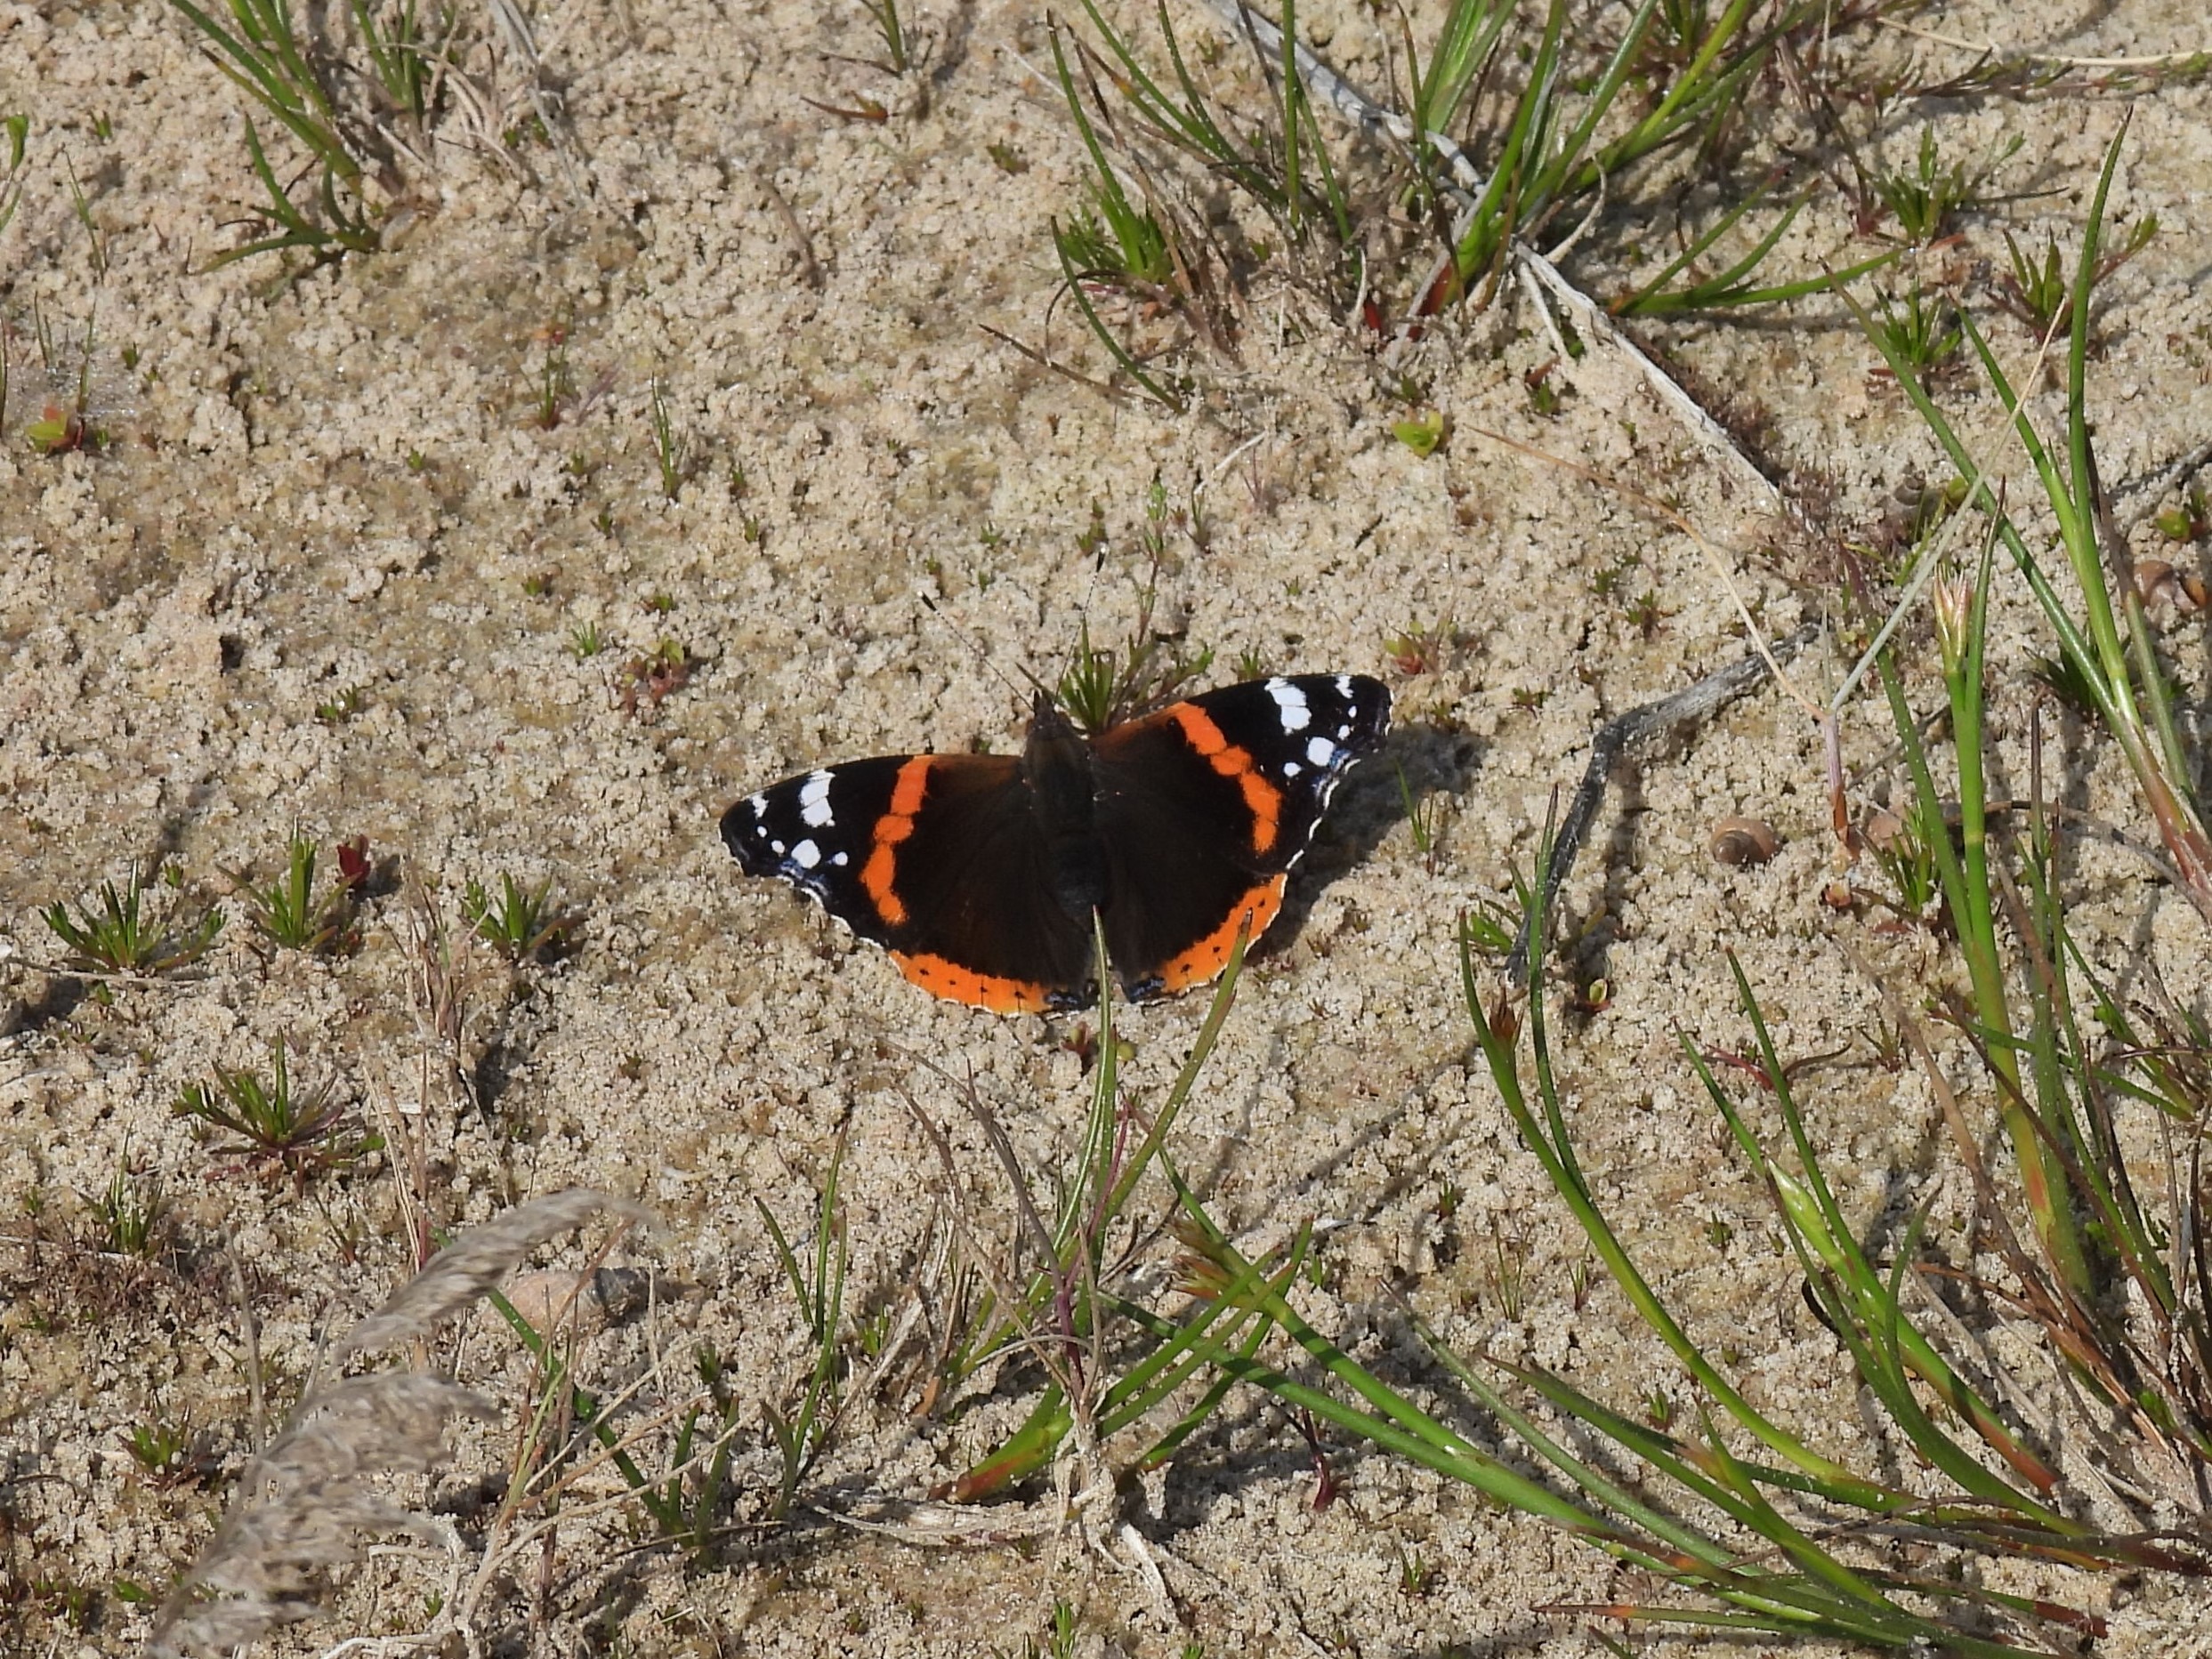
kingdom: Animalia
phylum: Arthropoda
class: Insecta
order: Lepidoptera
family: Nymphalidae
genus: Vanessa
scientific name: Vanessa atalanta
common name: Admiral
